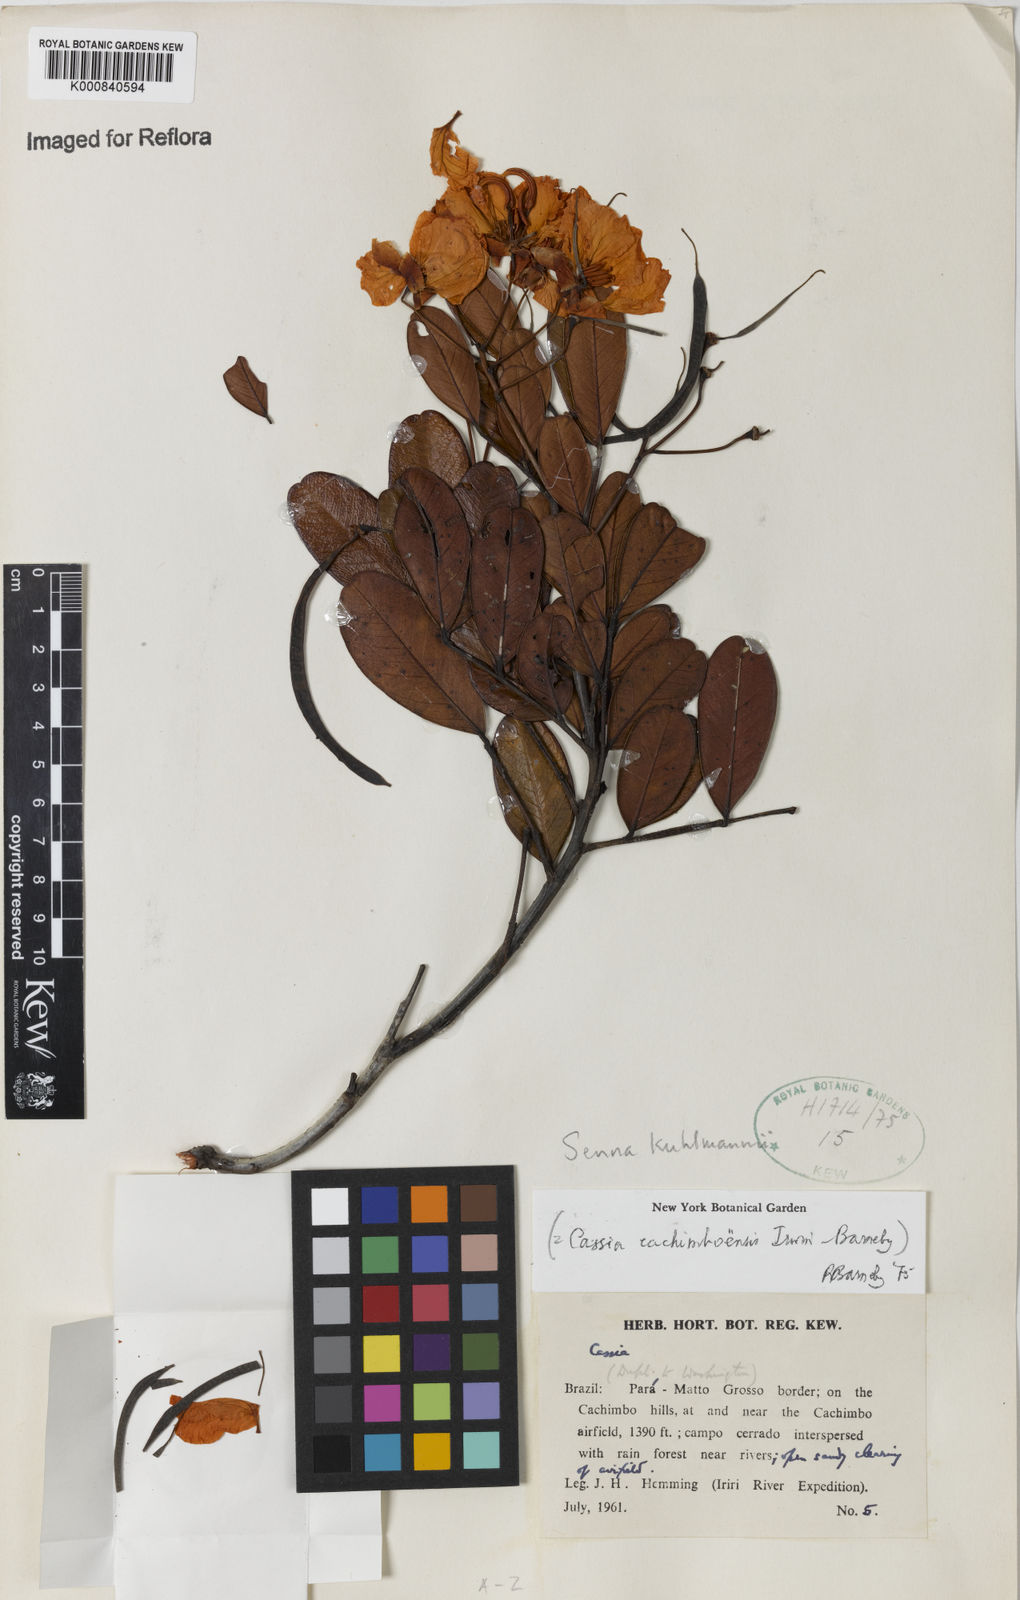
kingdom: Plantae
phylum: Tracheophyta
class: Magnoliopsida
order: Fabales
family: Fabaceae
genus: Senna
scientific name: Senna
